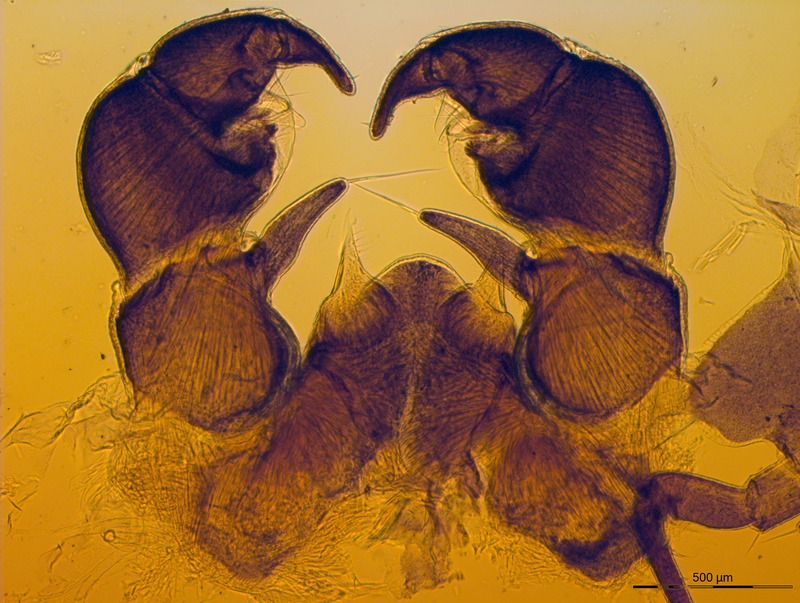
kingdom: Animalia
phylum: Arthropoda
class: Diplopoda
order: Glomerida
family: Glomeridae
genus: Glomeris
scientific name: Glomeris pustulata
